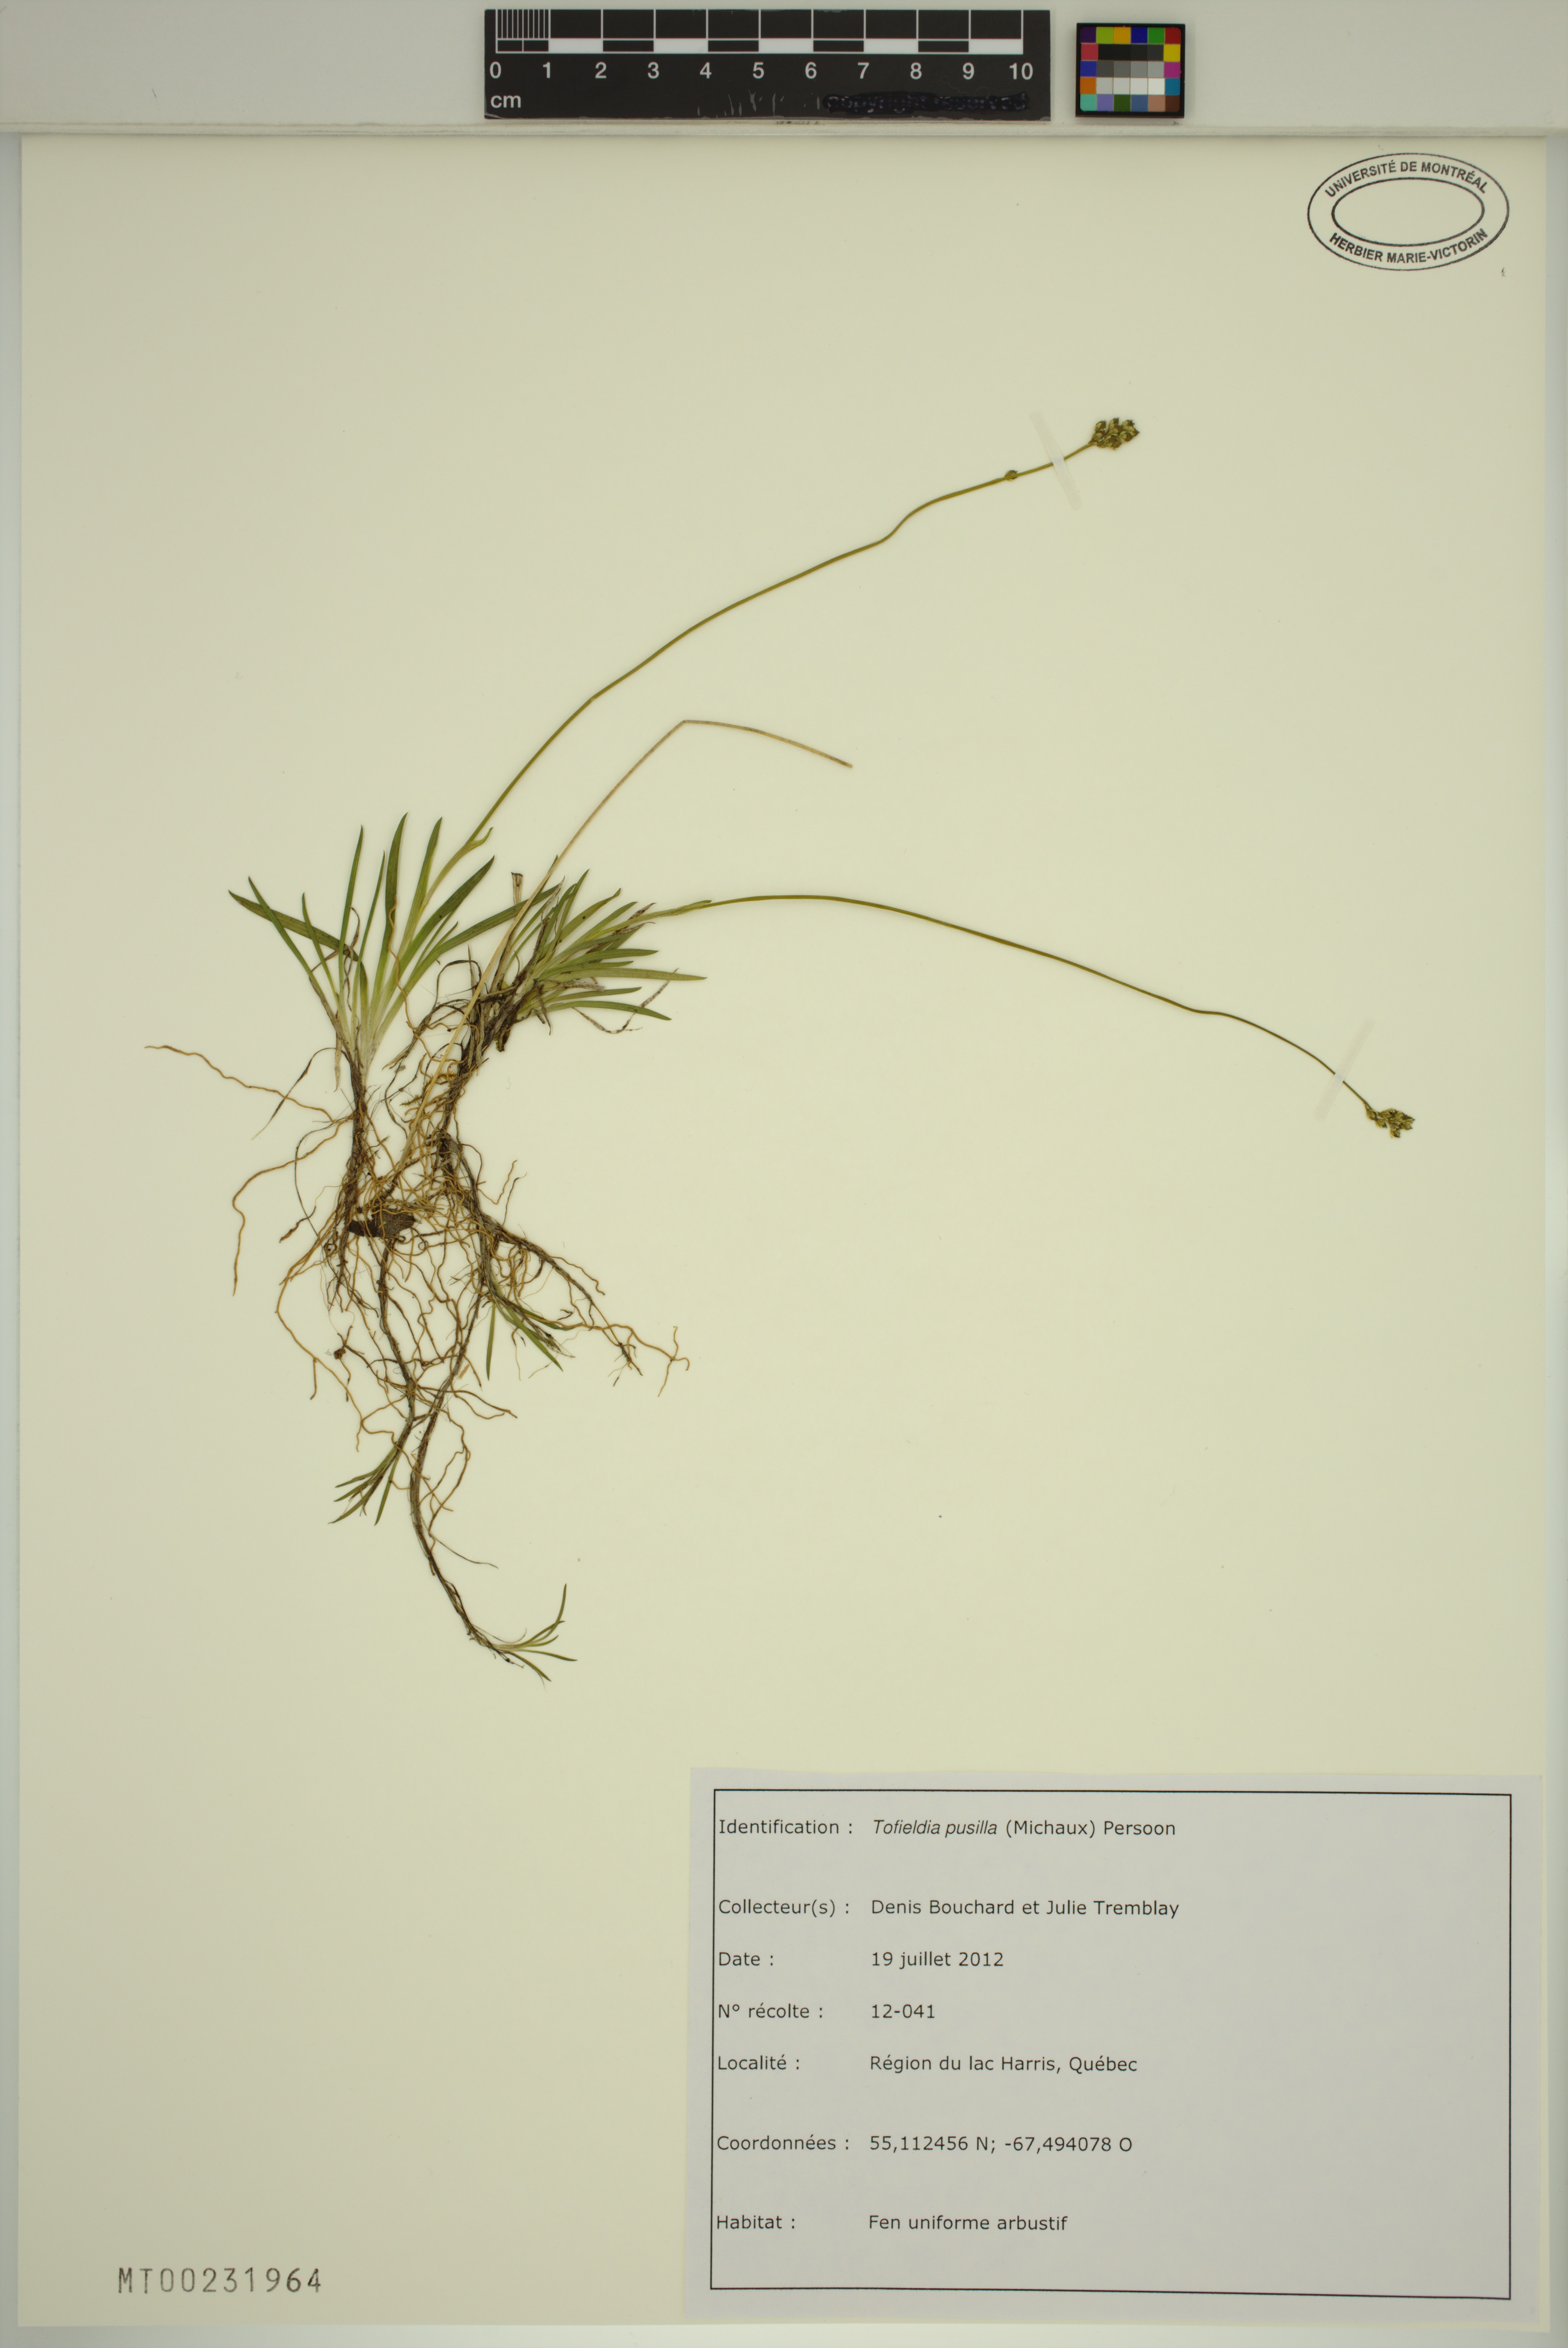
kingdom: Plantae
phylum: Tracheophyta
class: Liliopsida
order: Alismatales
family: Tofieldiaceae
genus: Tofieldia
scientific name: Tofieldia pusilla
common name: Scottish false asphodel
